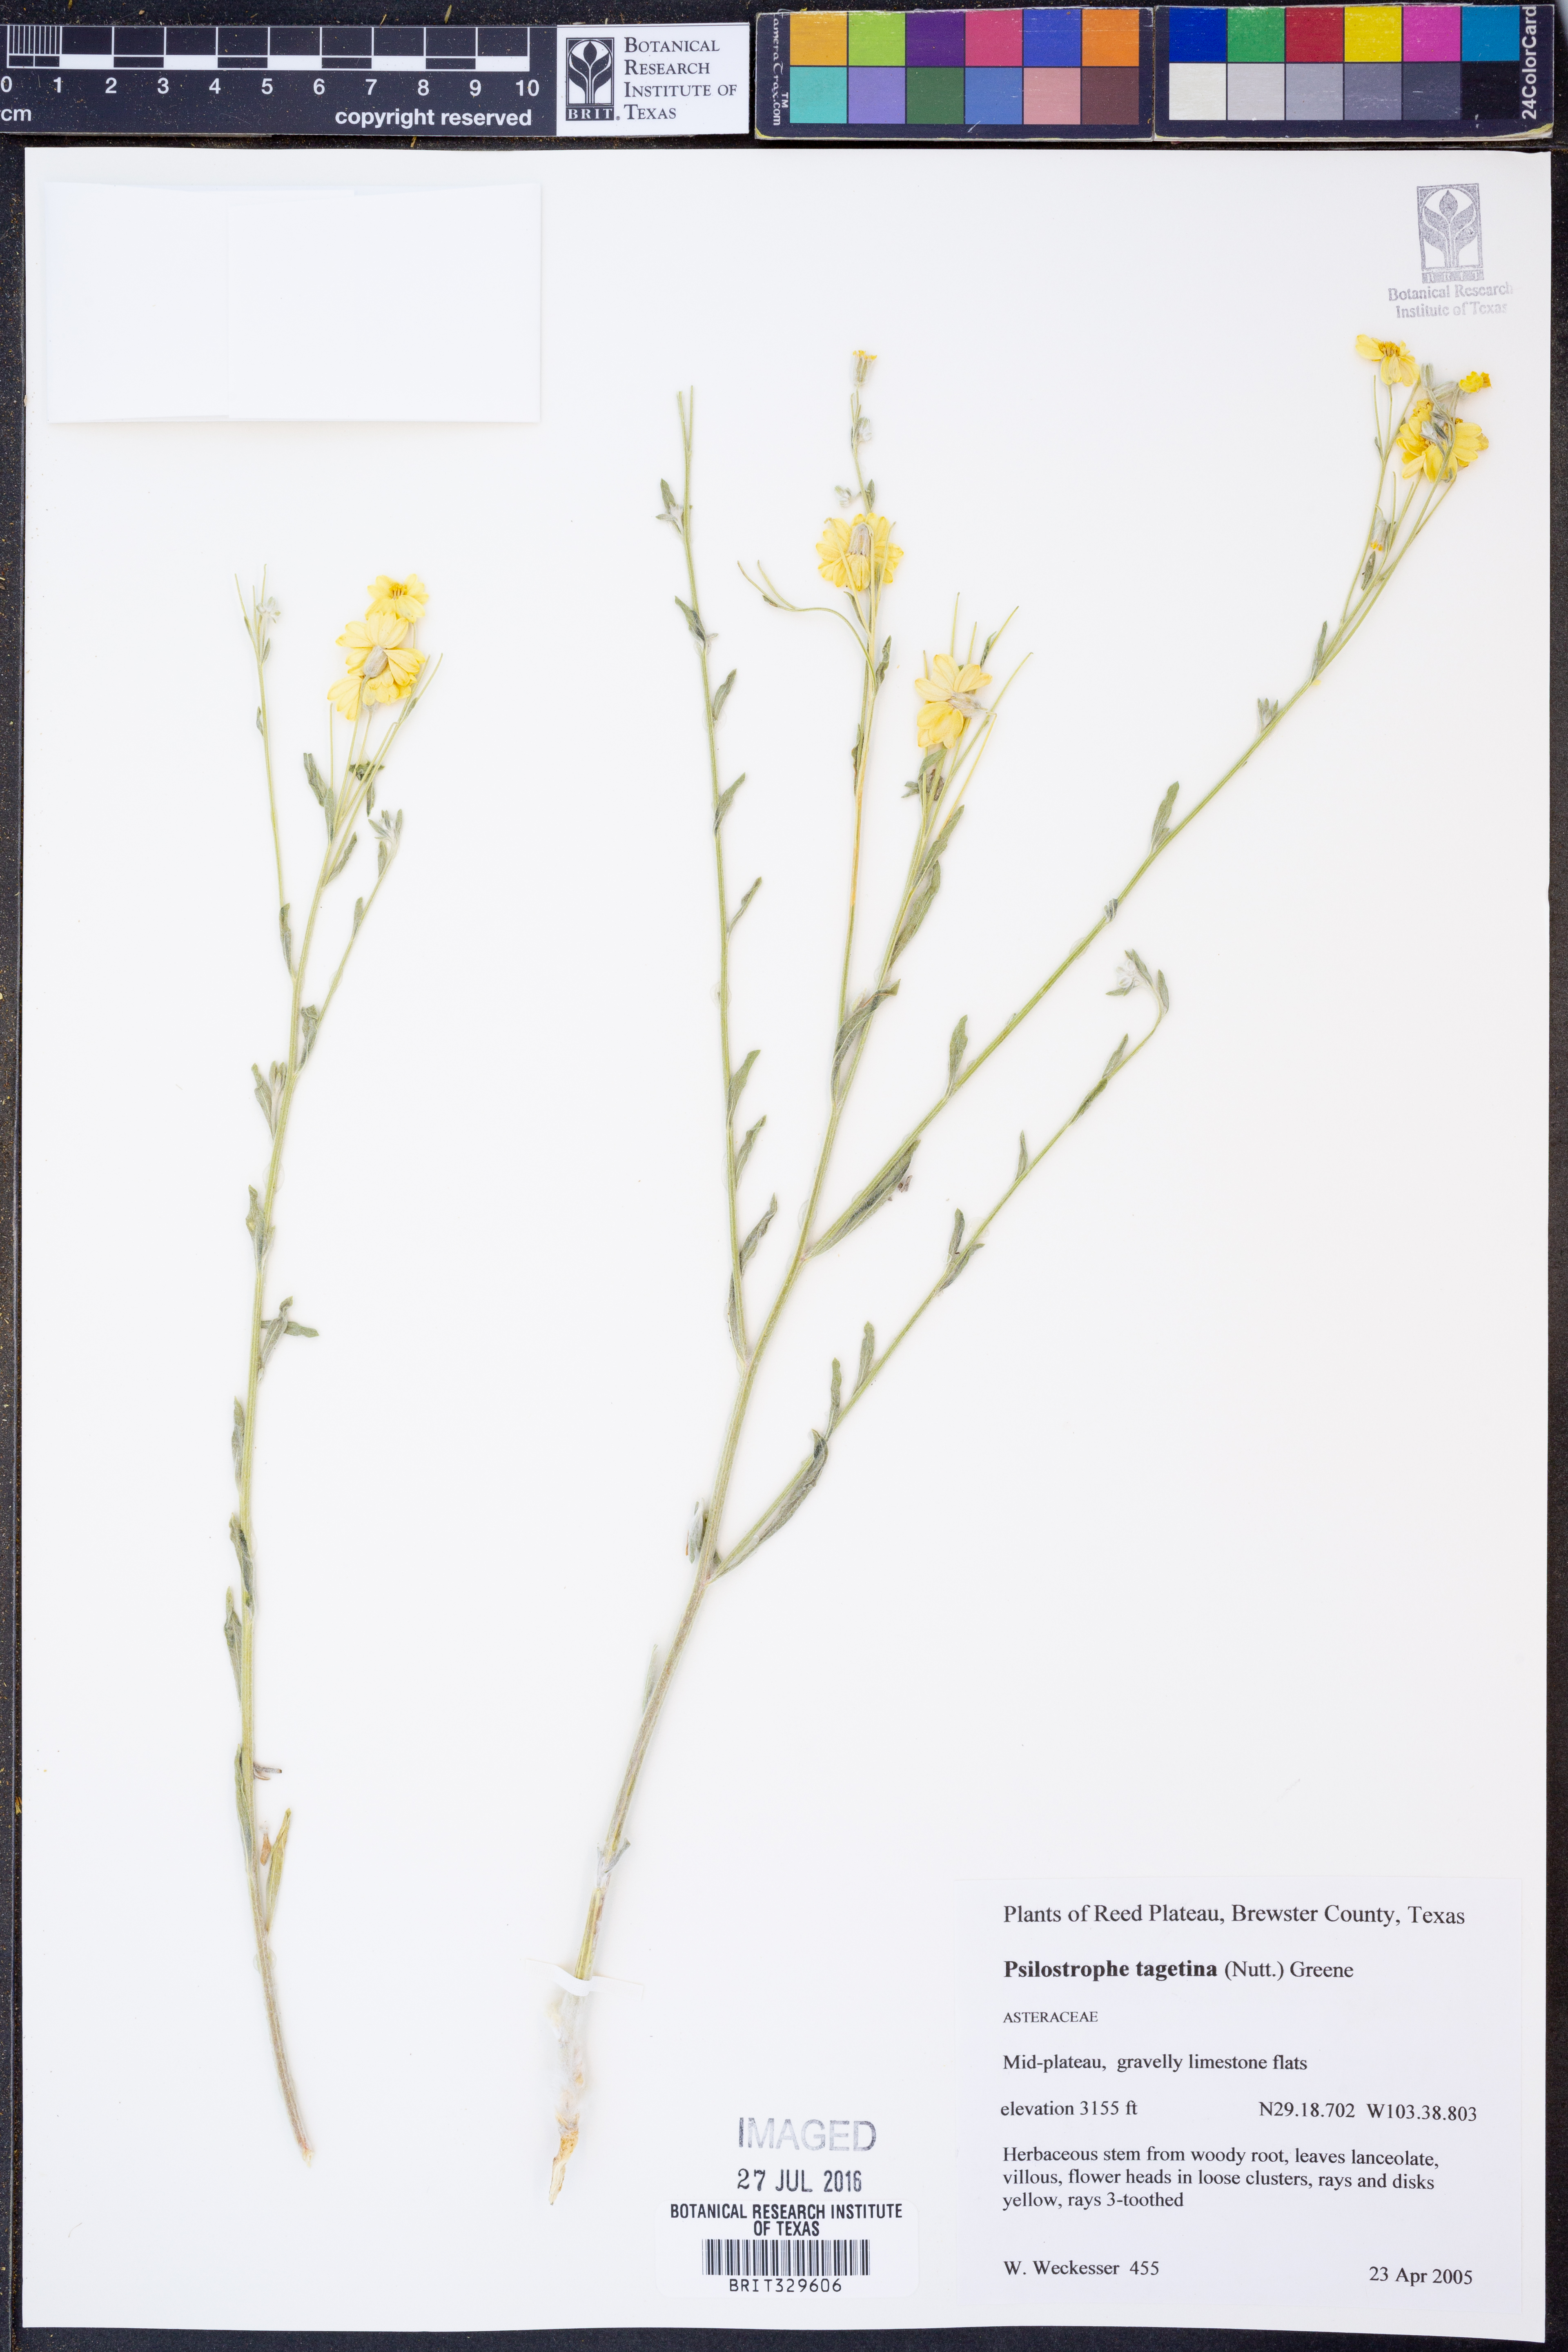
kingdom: Plantae
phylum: Tracheophyta
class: Magnoliopsida
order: Asterales
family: Asteraceae
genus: Psilostrophe
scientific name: Psilostrophe tagetina
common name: Marigold paper-flower
